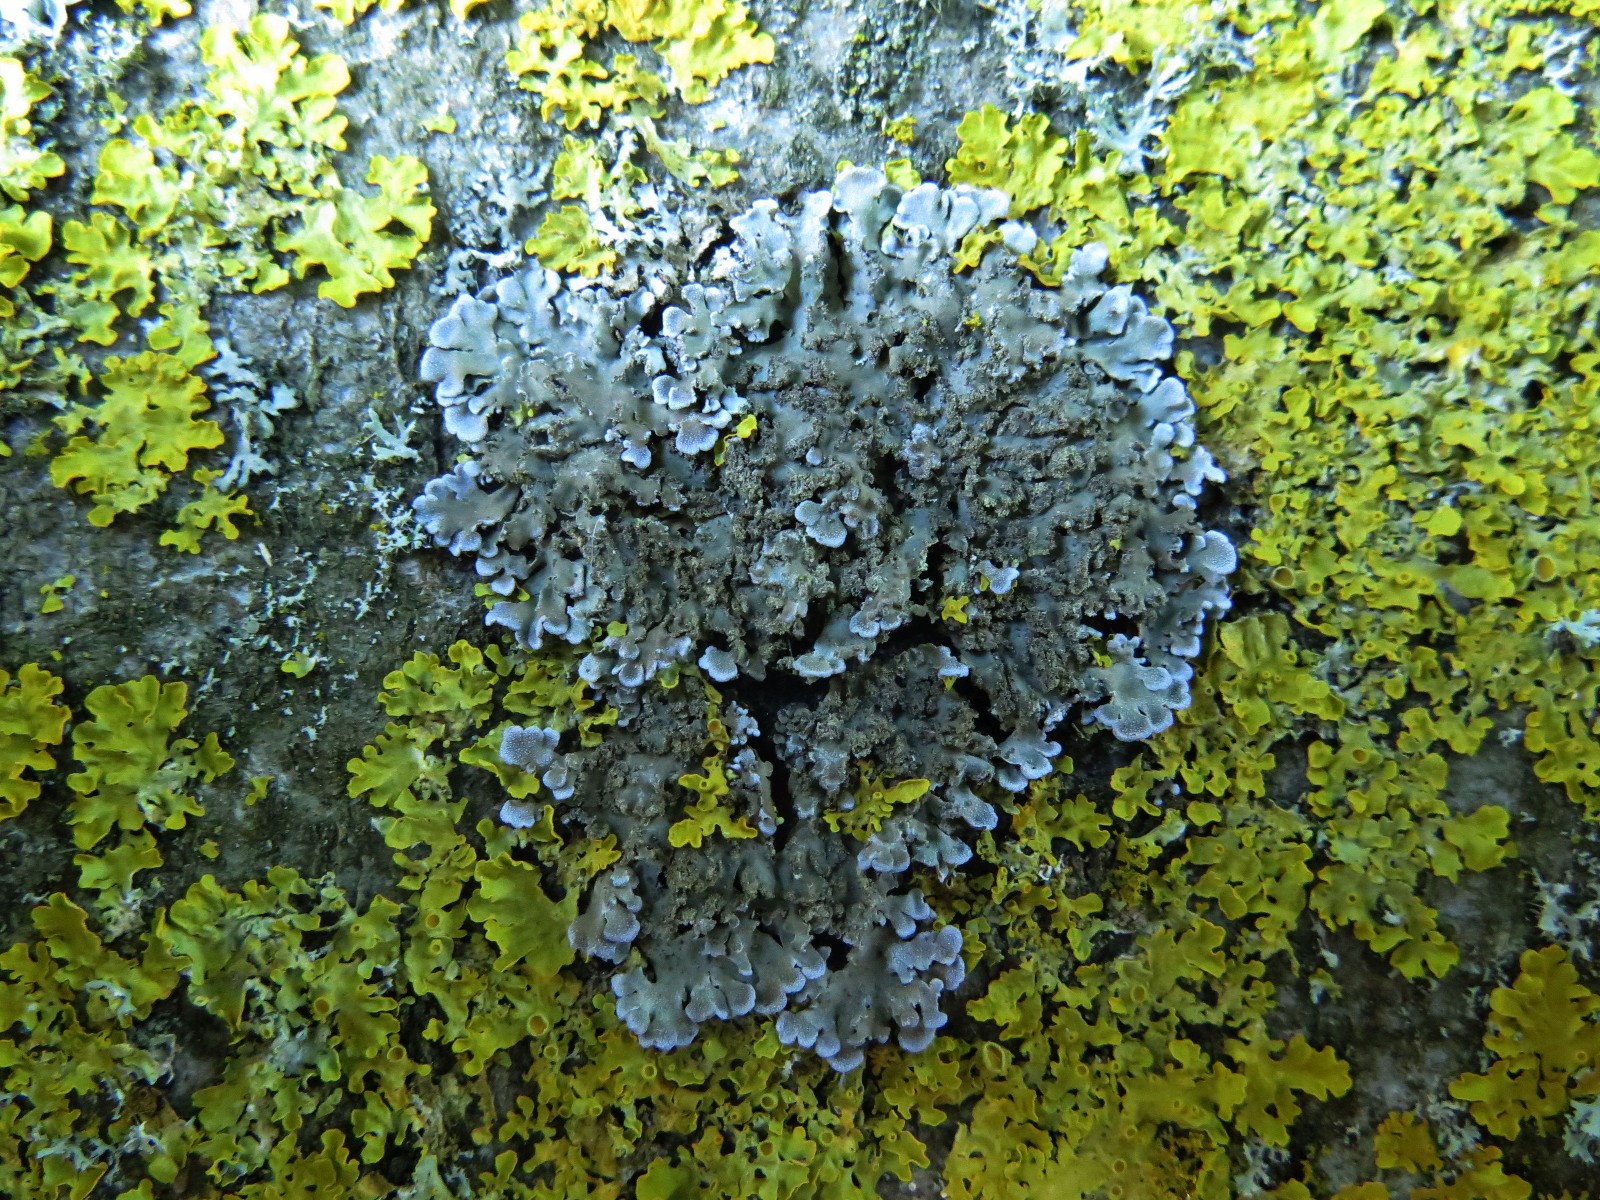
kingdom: Fungi
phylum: Ascomycota
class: Lecanoromycetes
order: Caliciales
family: Physciaceae
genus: Physconia
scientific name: Physconia enteroxantha
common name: grynet dugrosetlav
